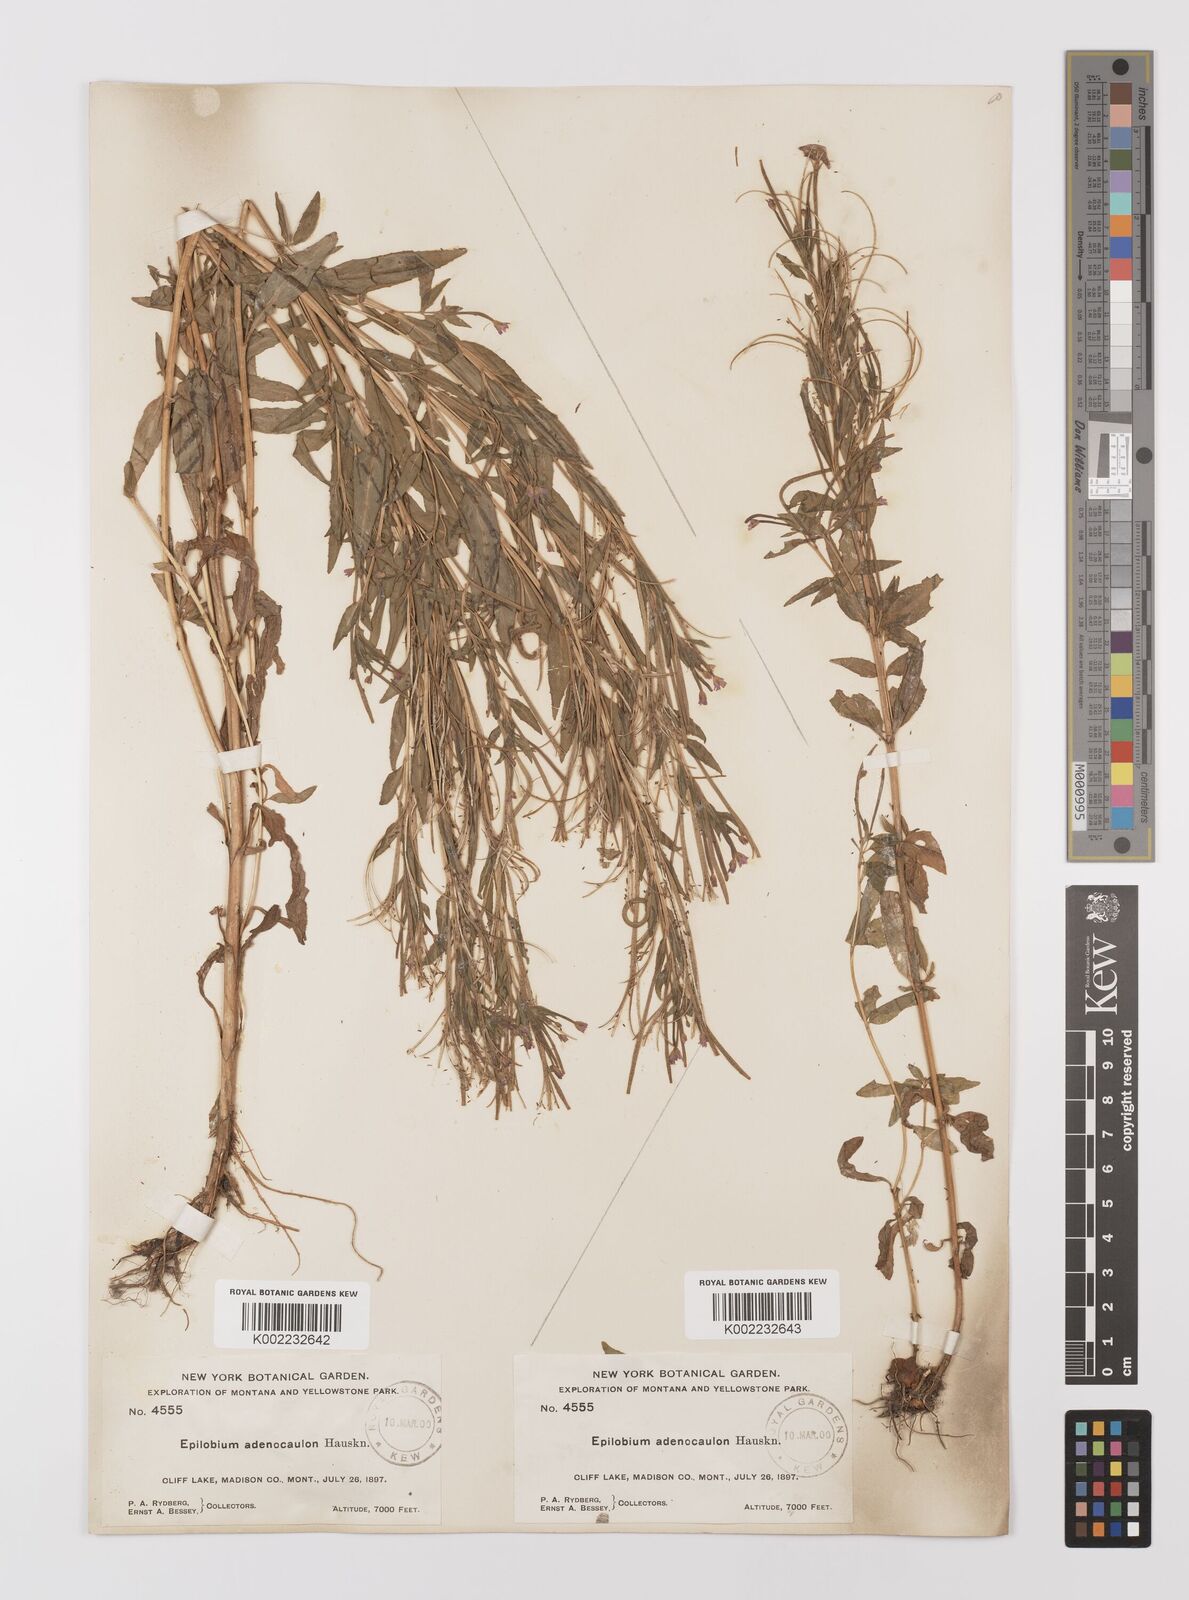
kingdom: Plantae
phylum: Tracheophyta
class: Magnoliopsida
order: Myrtales
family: Onagraceae
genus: Epilobium
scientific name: Epilobium ciliatum
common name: American willowherb
